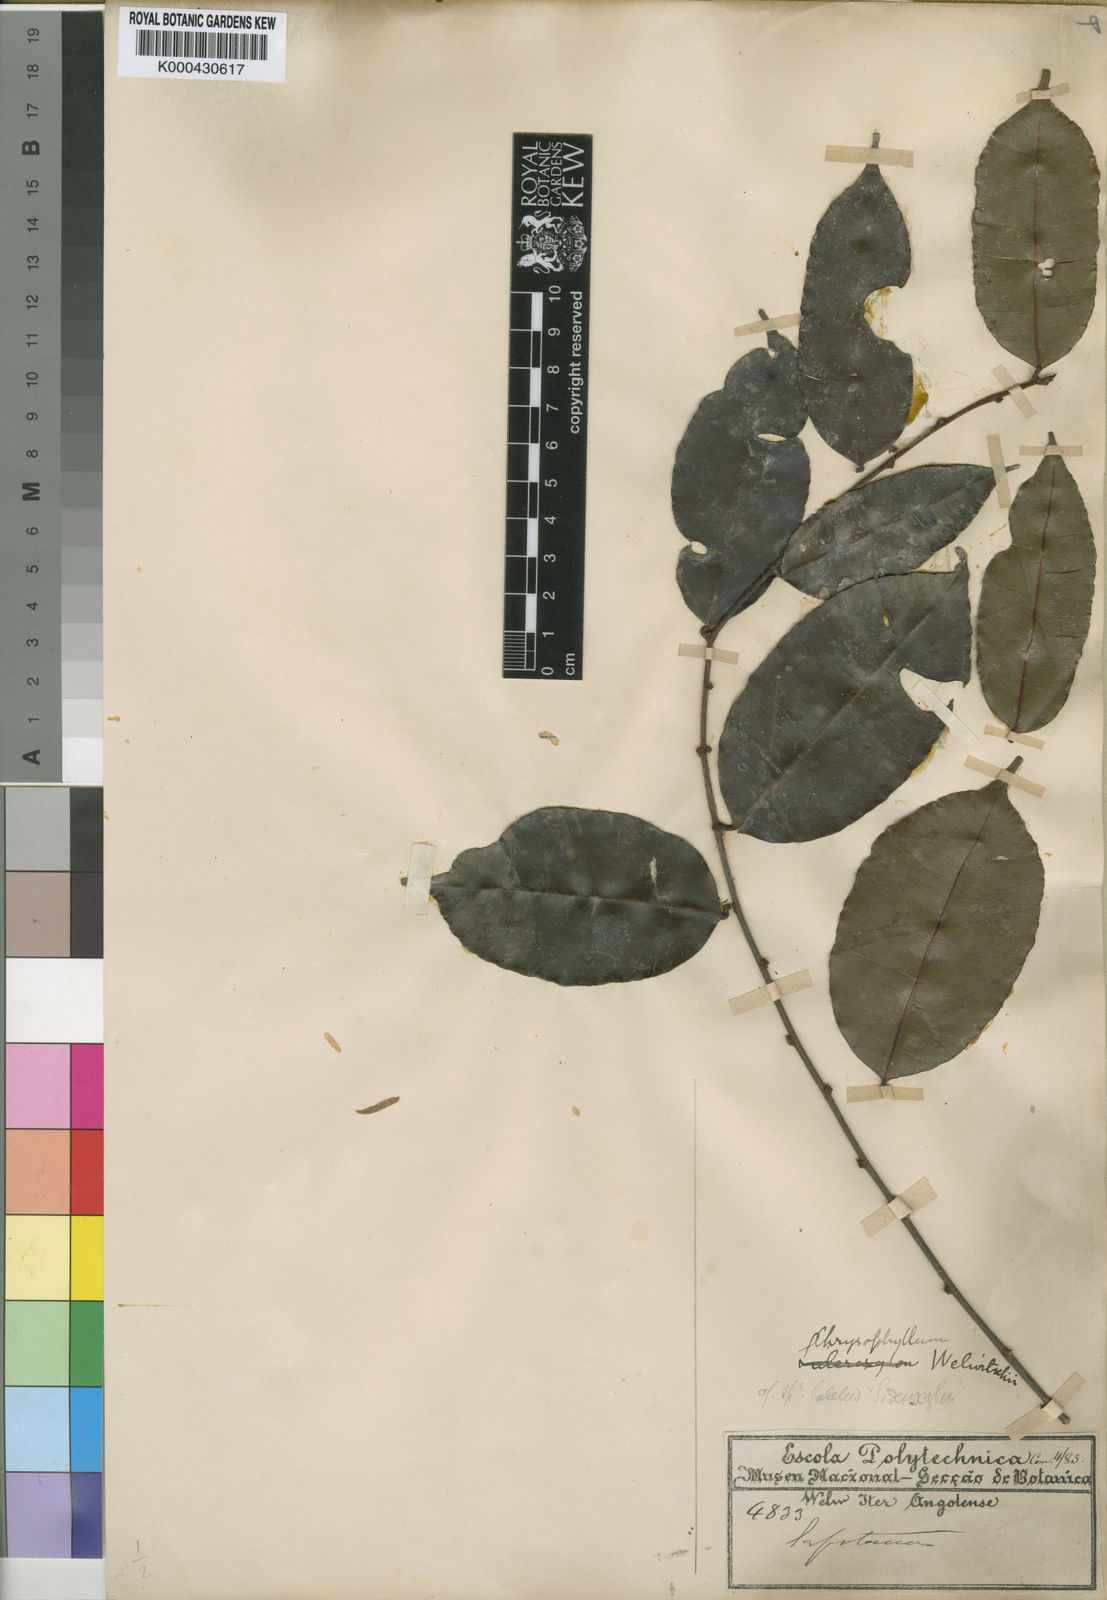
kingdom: Plantae
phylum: Tracheophyta
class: Magnoliopsida
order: Ericales
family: Sapotaceae
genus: Donella
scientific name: Donella welwitschii
